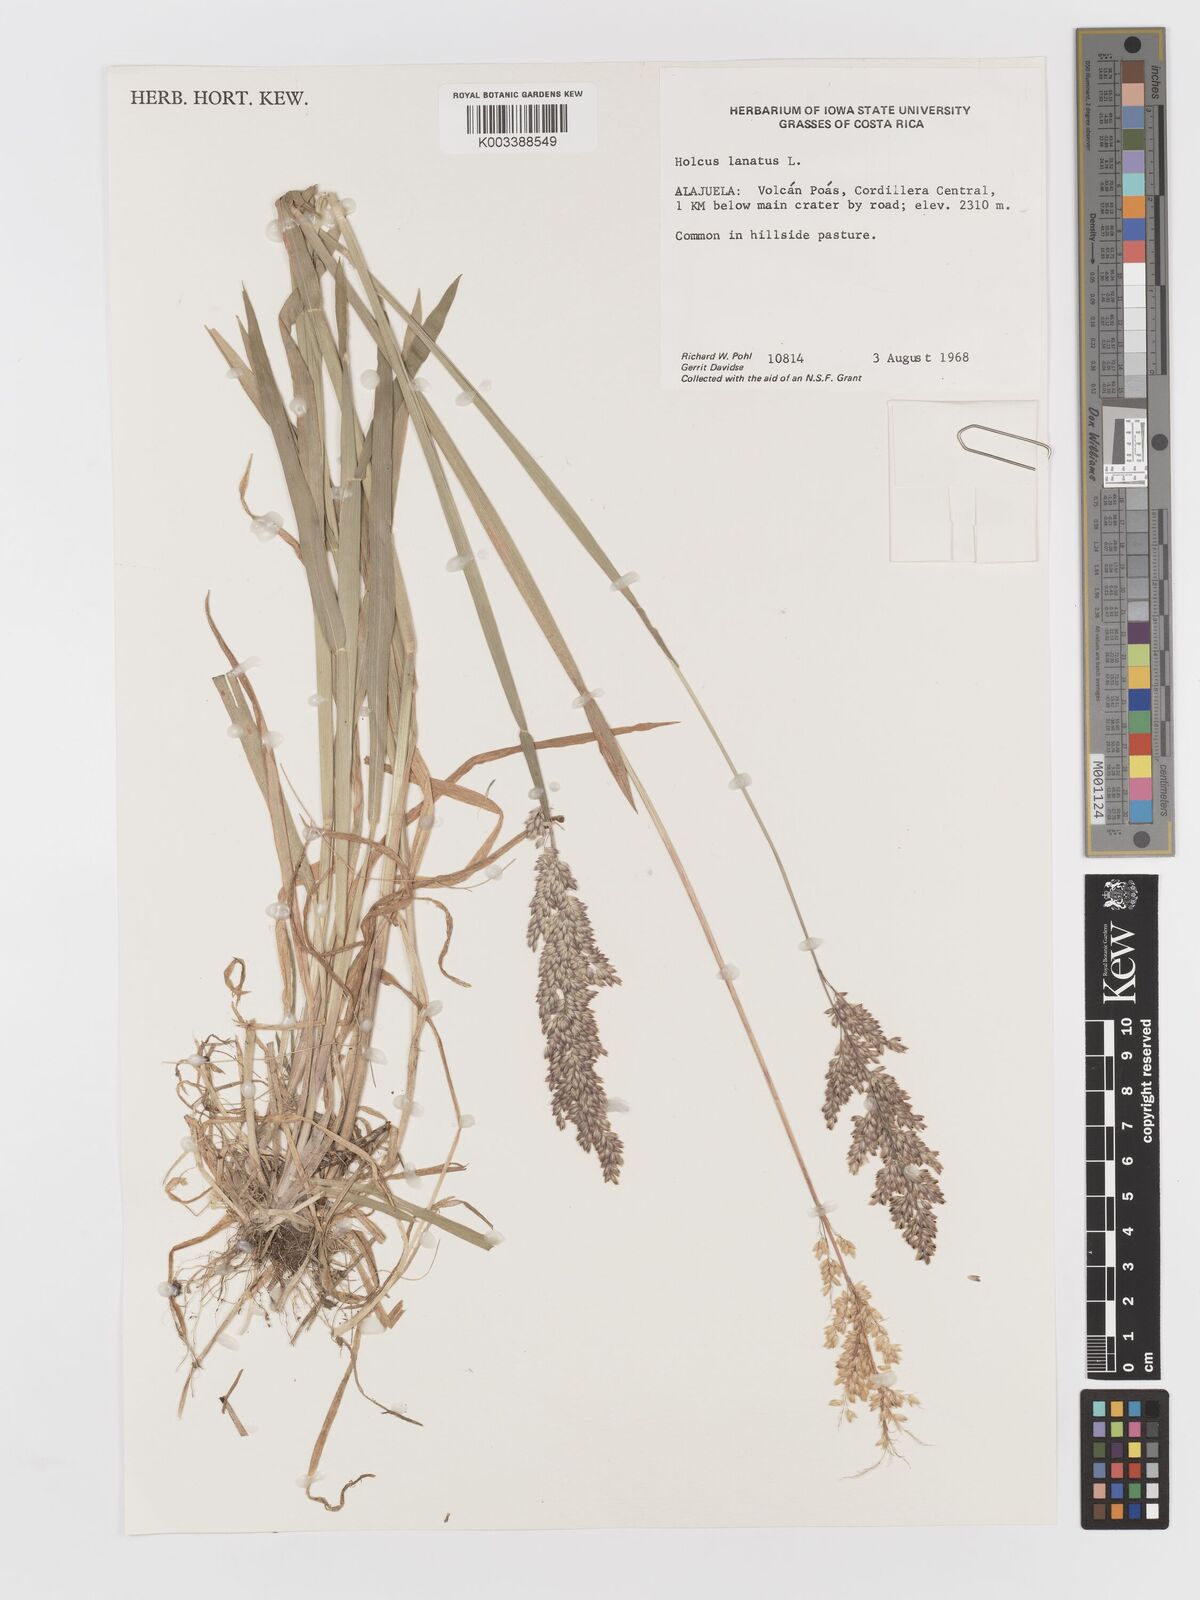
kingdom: Plantae
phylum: Tracheophyta
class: Liliopsida
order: Poales
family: Poaceae
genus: Holcus
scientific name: Holcus lanatus
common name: Yorkshire-fog
